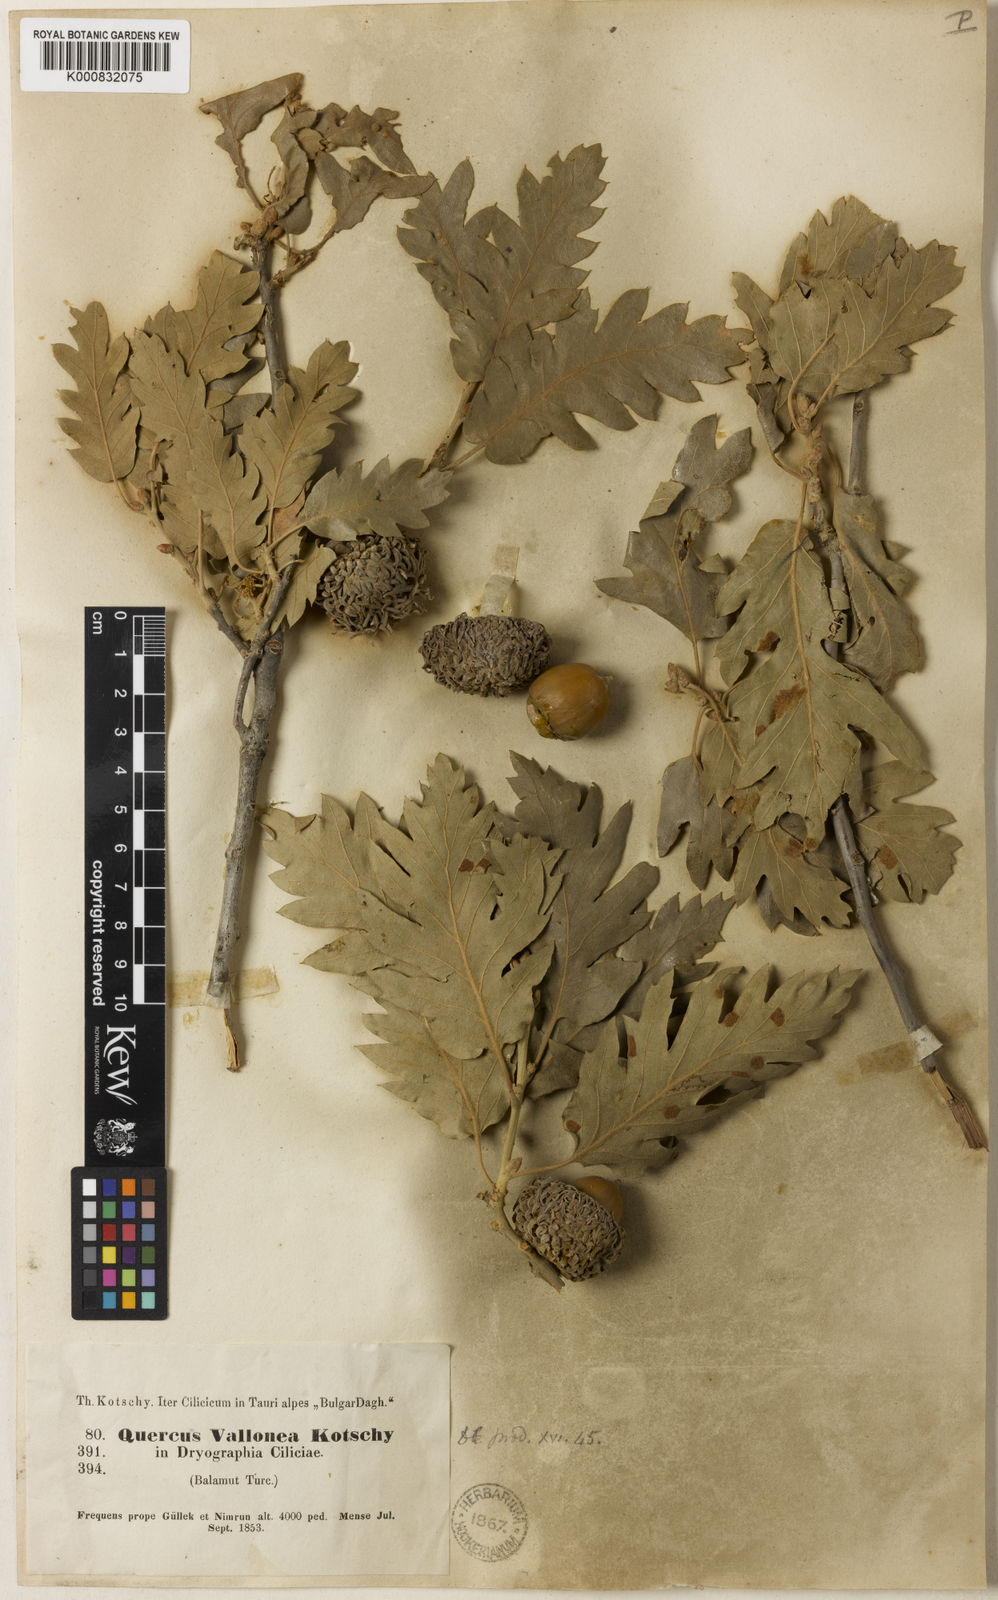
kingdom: Plantae
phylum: Tracheophyta
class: Magnoliopsida
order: Fagales
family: Fagaceae
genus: Quercus
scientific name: Quercus cerris
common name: Turkey oak
